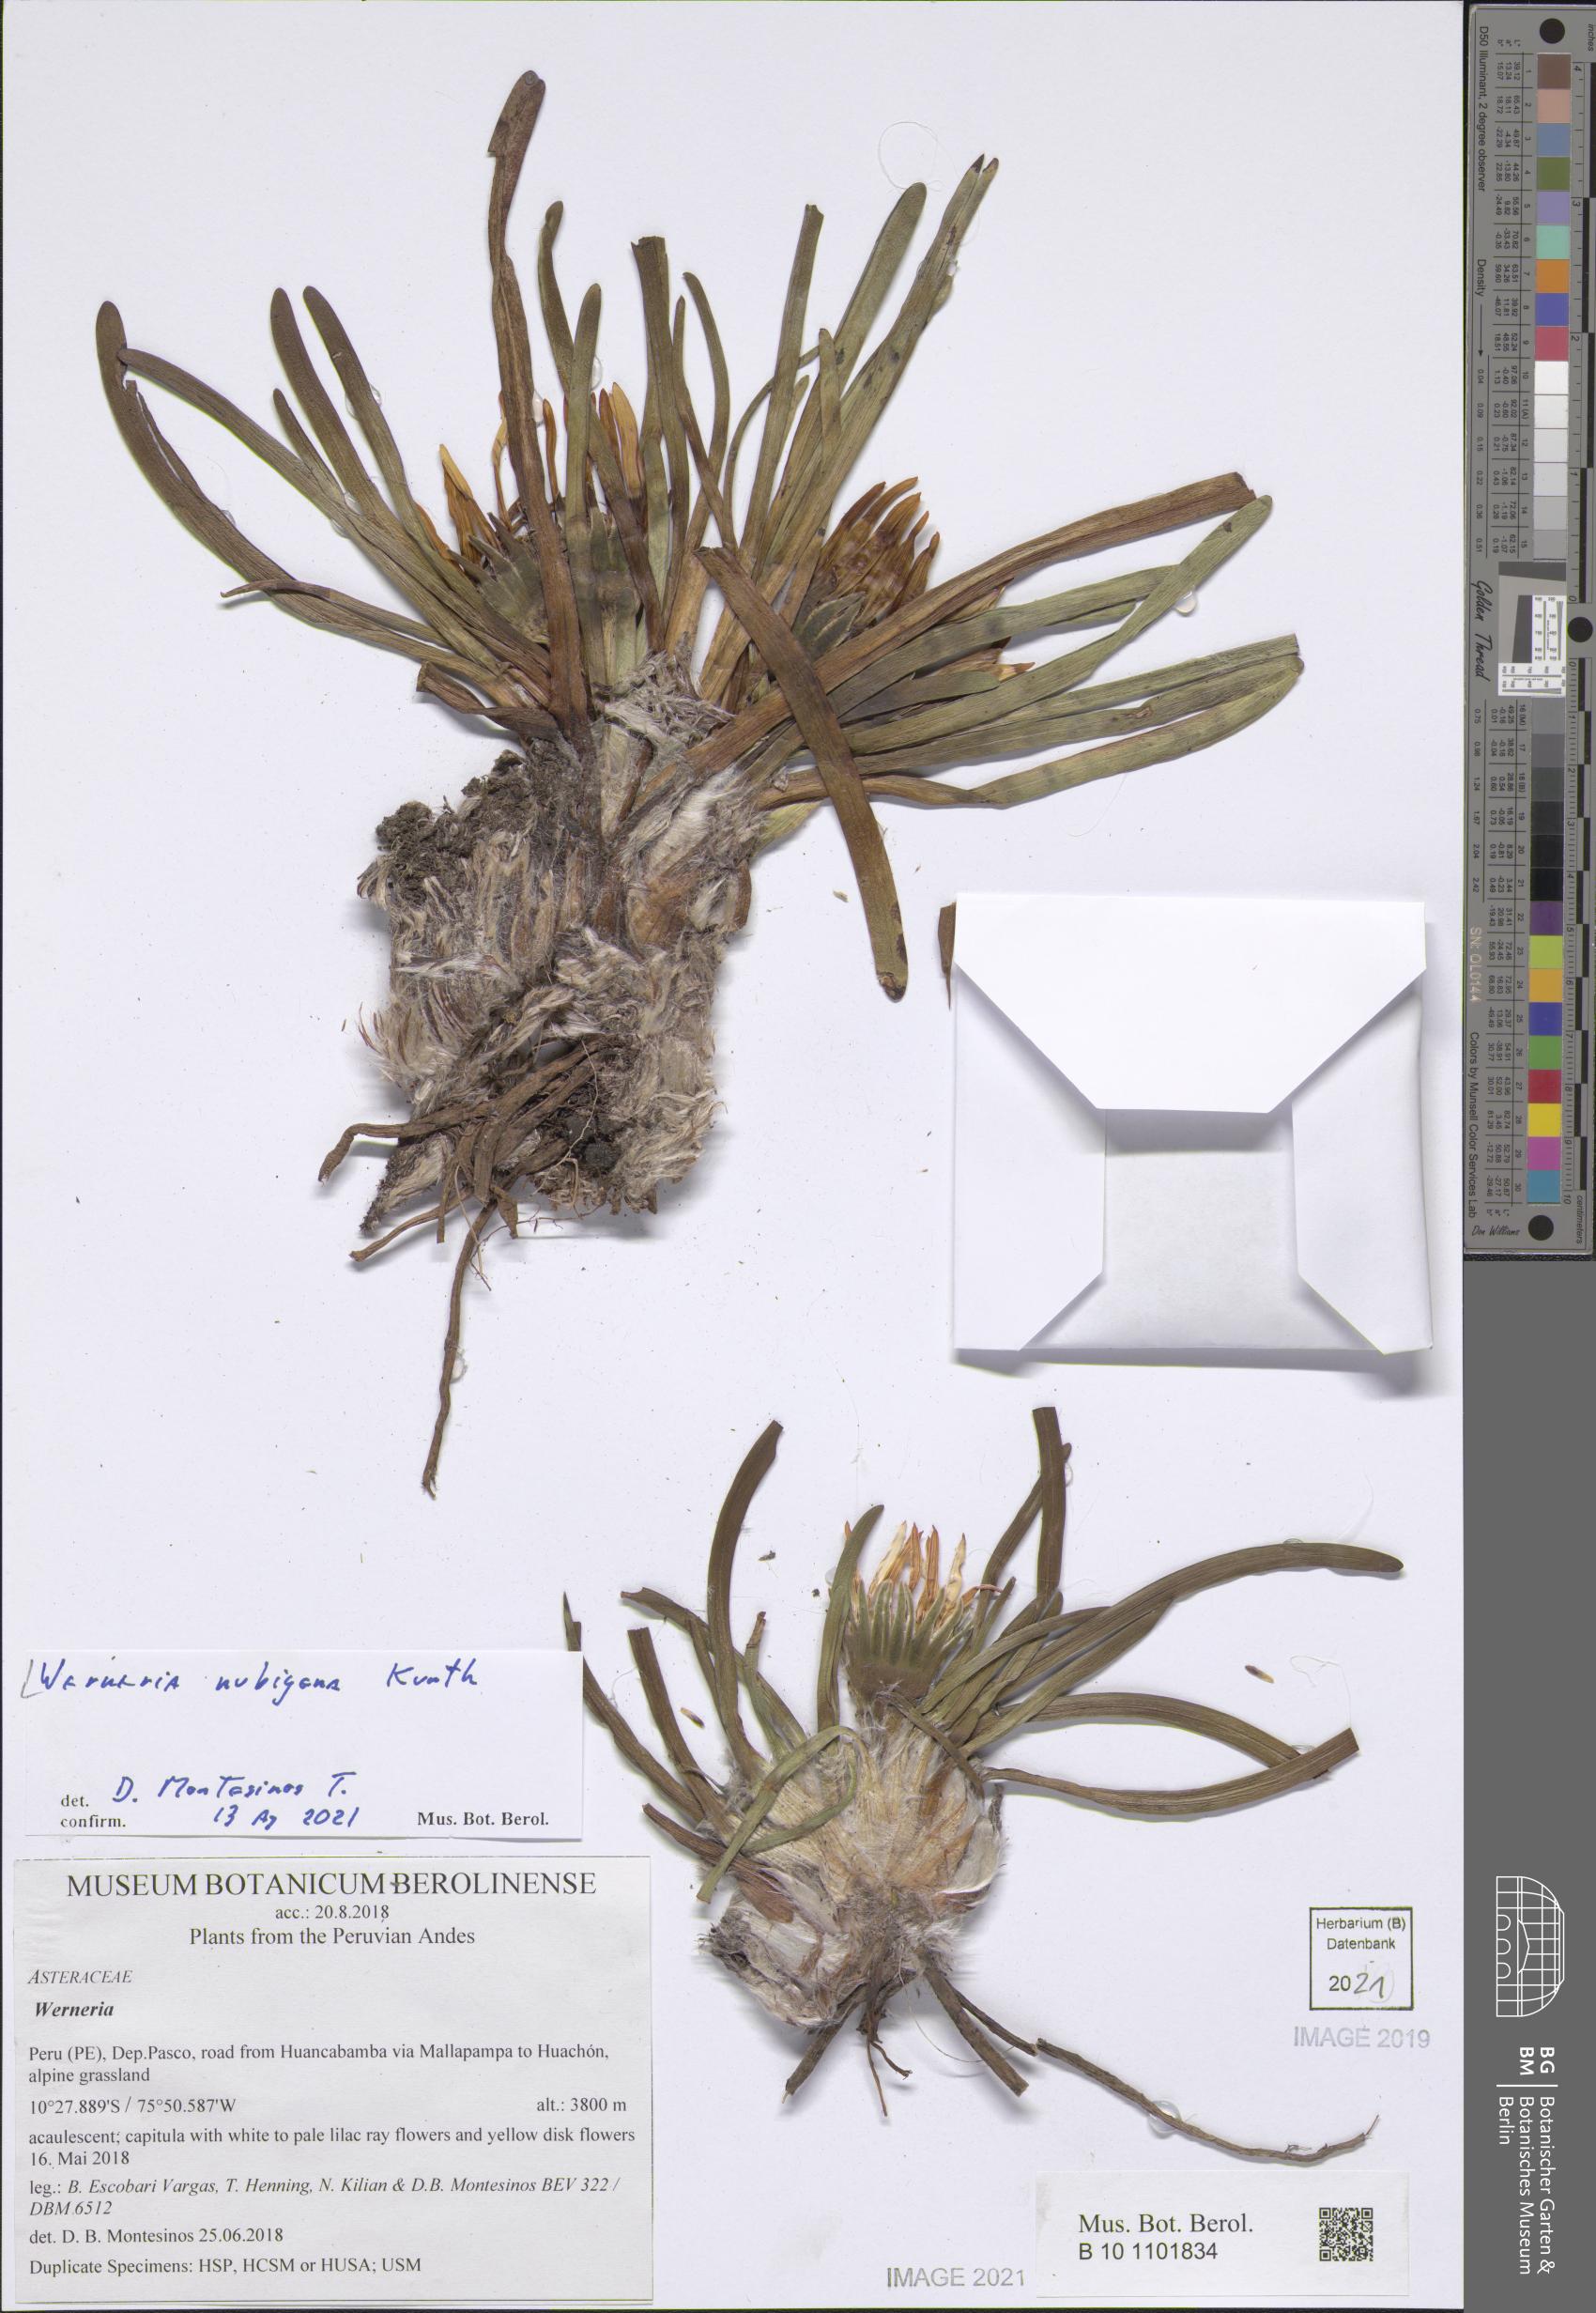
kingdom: Plantae
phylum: Tracheophyta
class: Magnoliopsida
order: Asterales
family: Asteraceae
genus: Rockhausenia
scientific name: Rockhausenia nubigena
